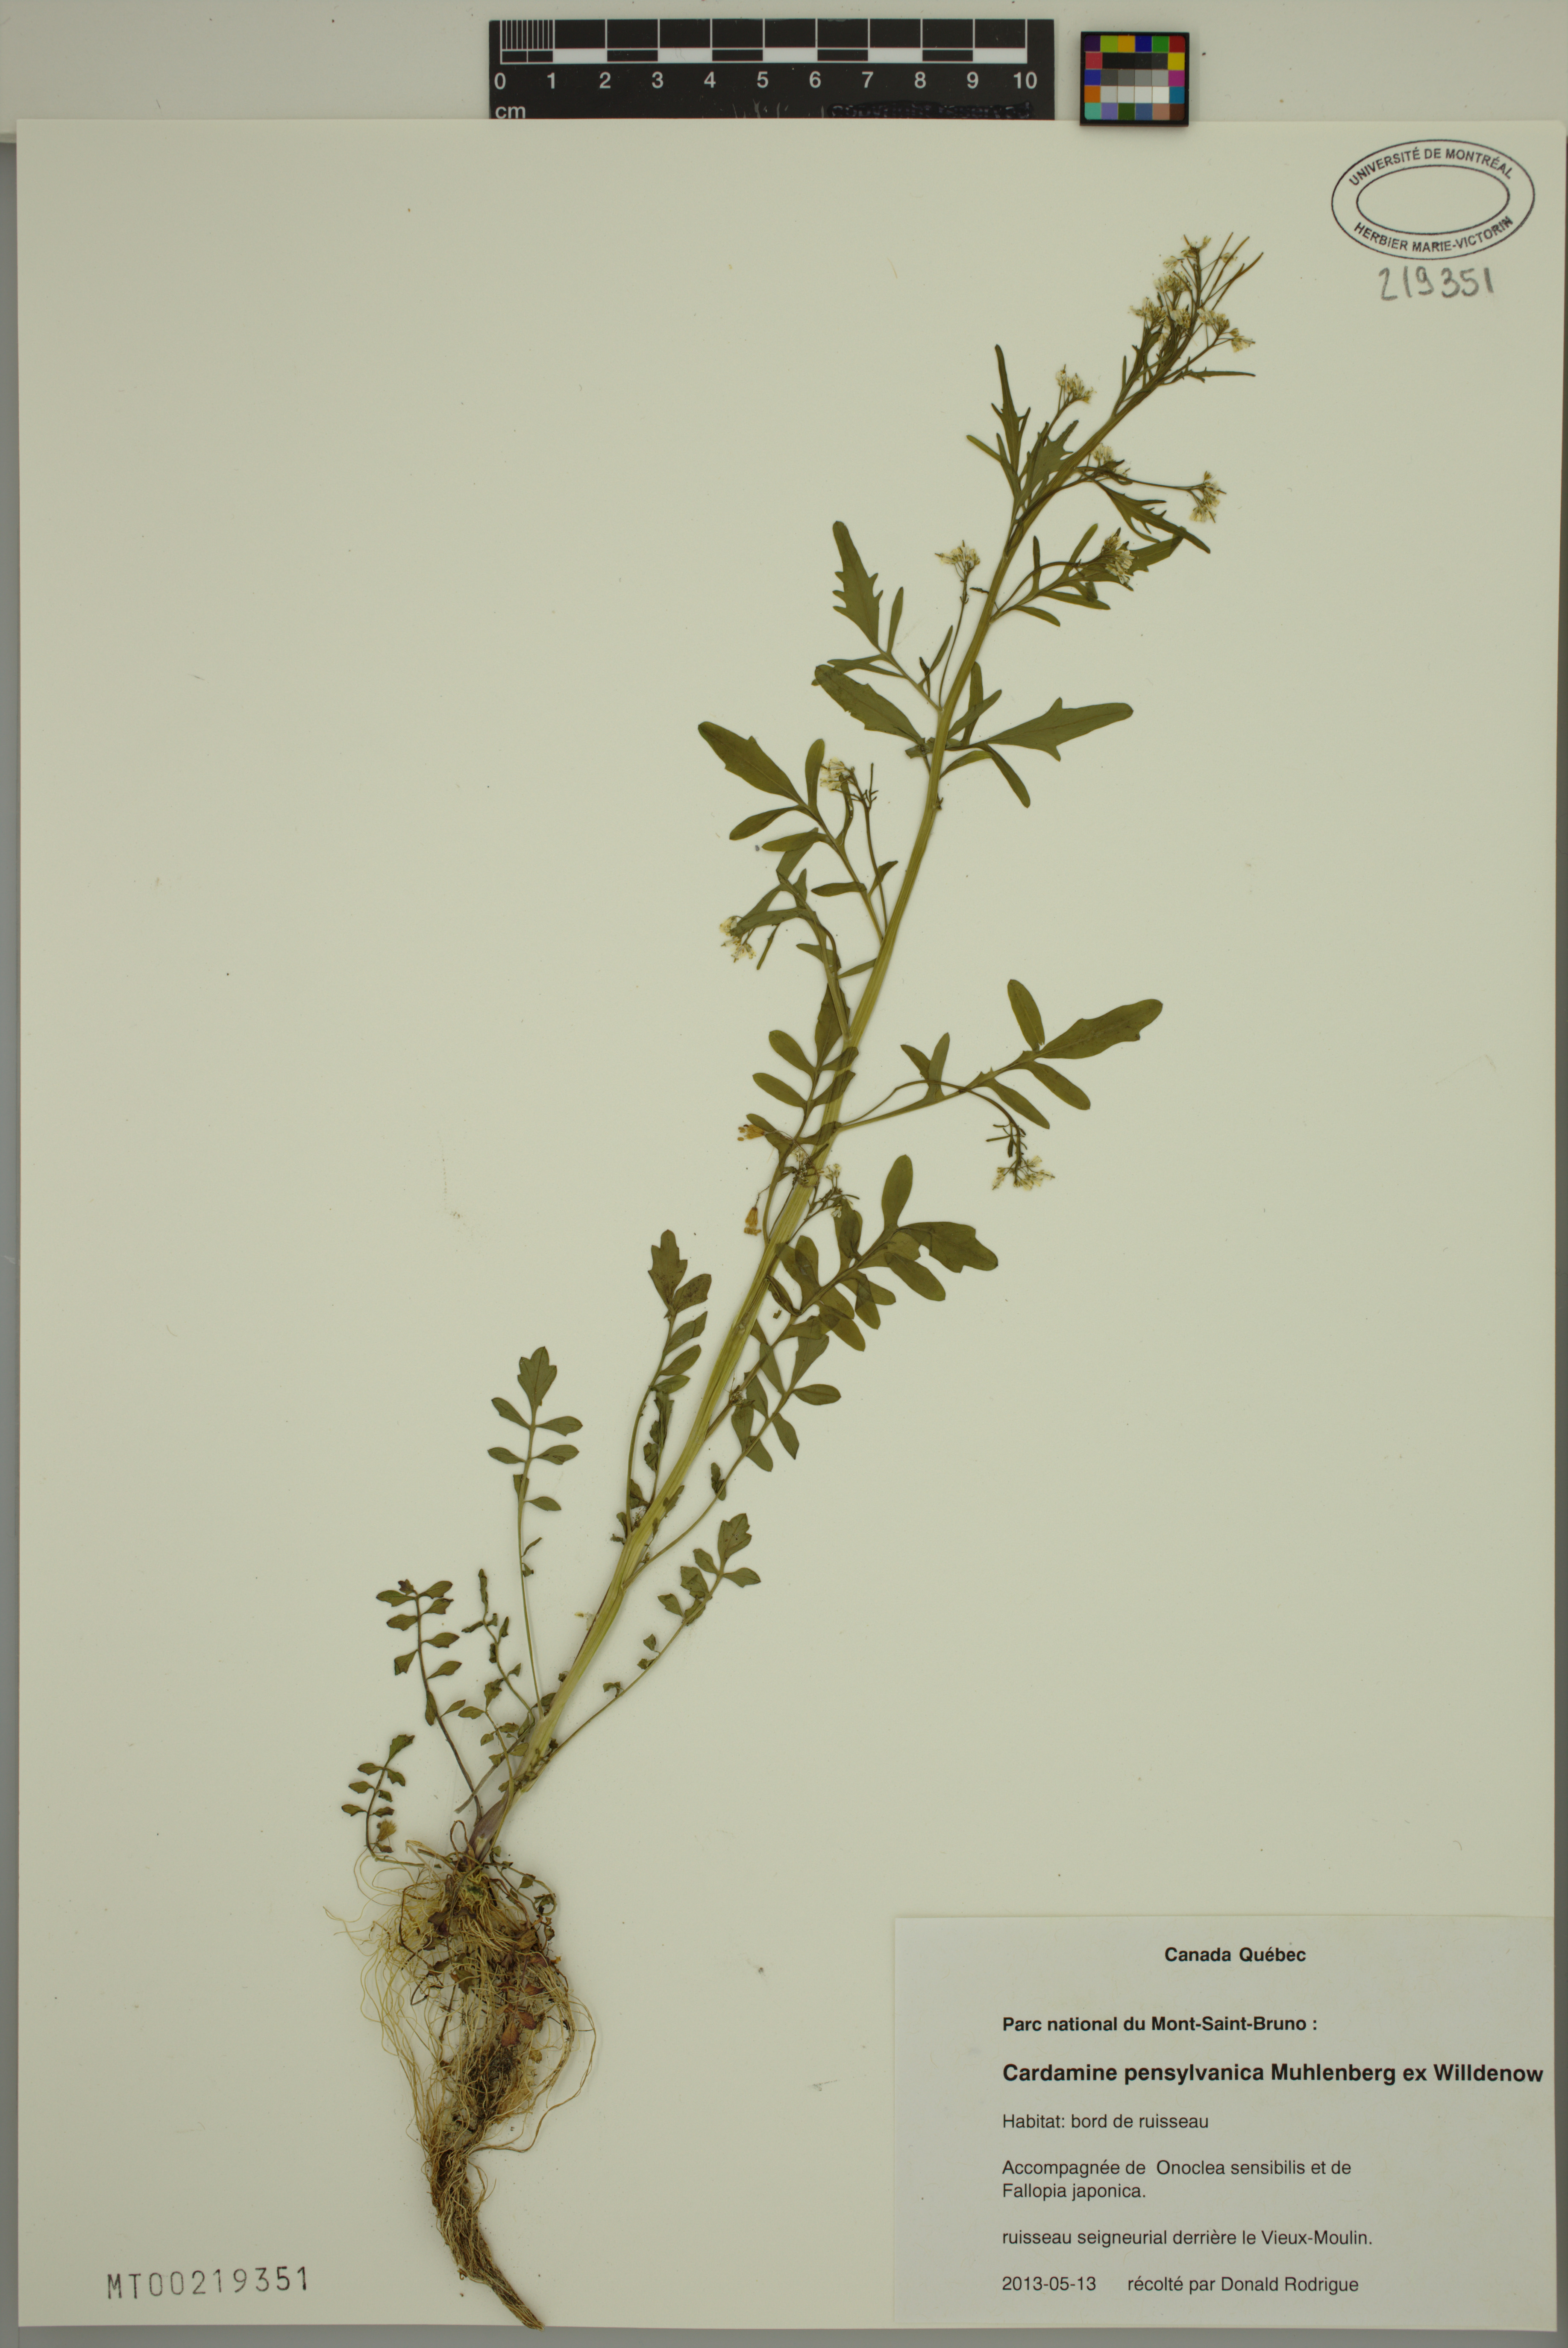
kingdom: Plantae
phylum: Tracheophyta
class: Magnoliopsida
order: Brassicales
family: Brassicaceae
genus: Cardamine
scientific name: Cardamine pensylvanica
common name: Pennsylvania bittercress
